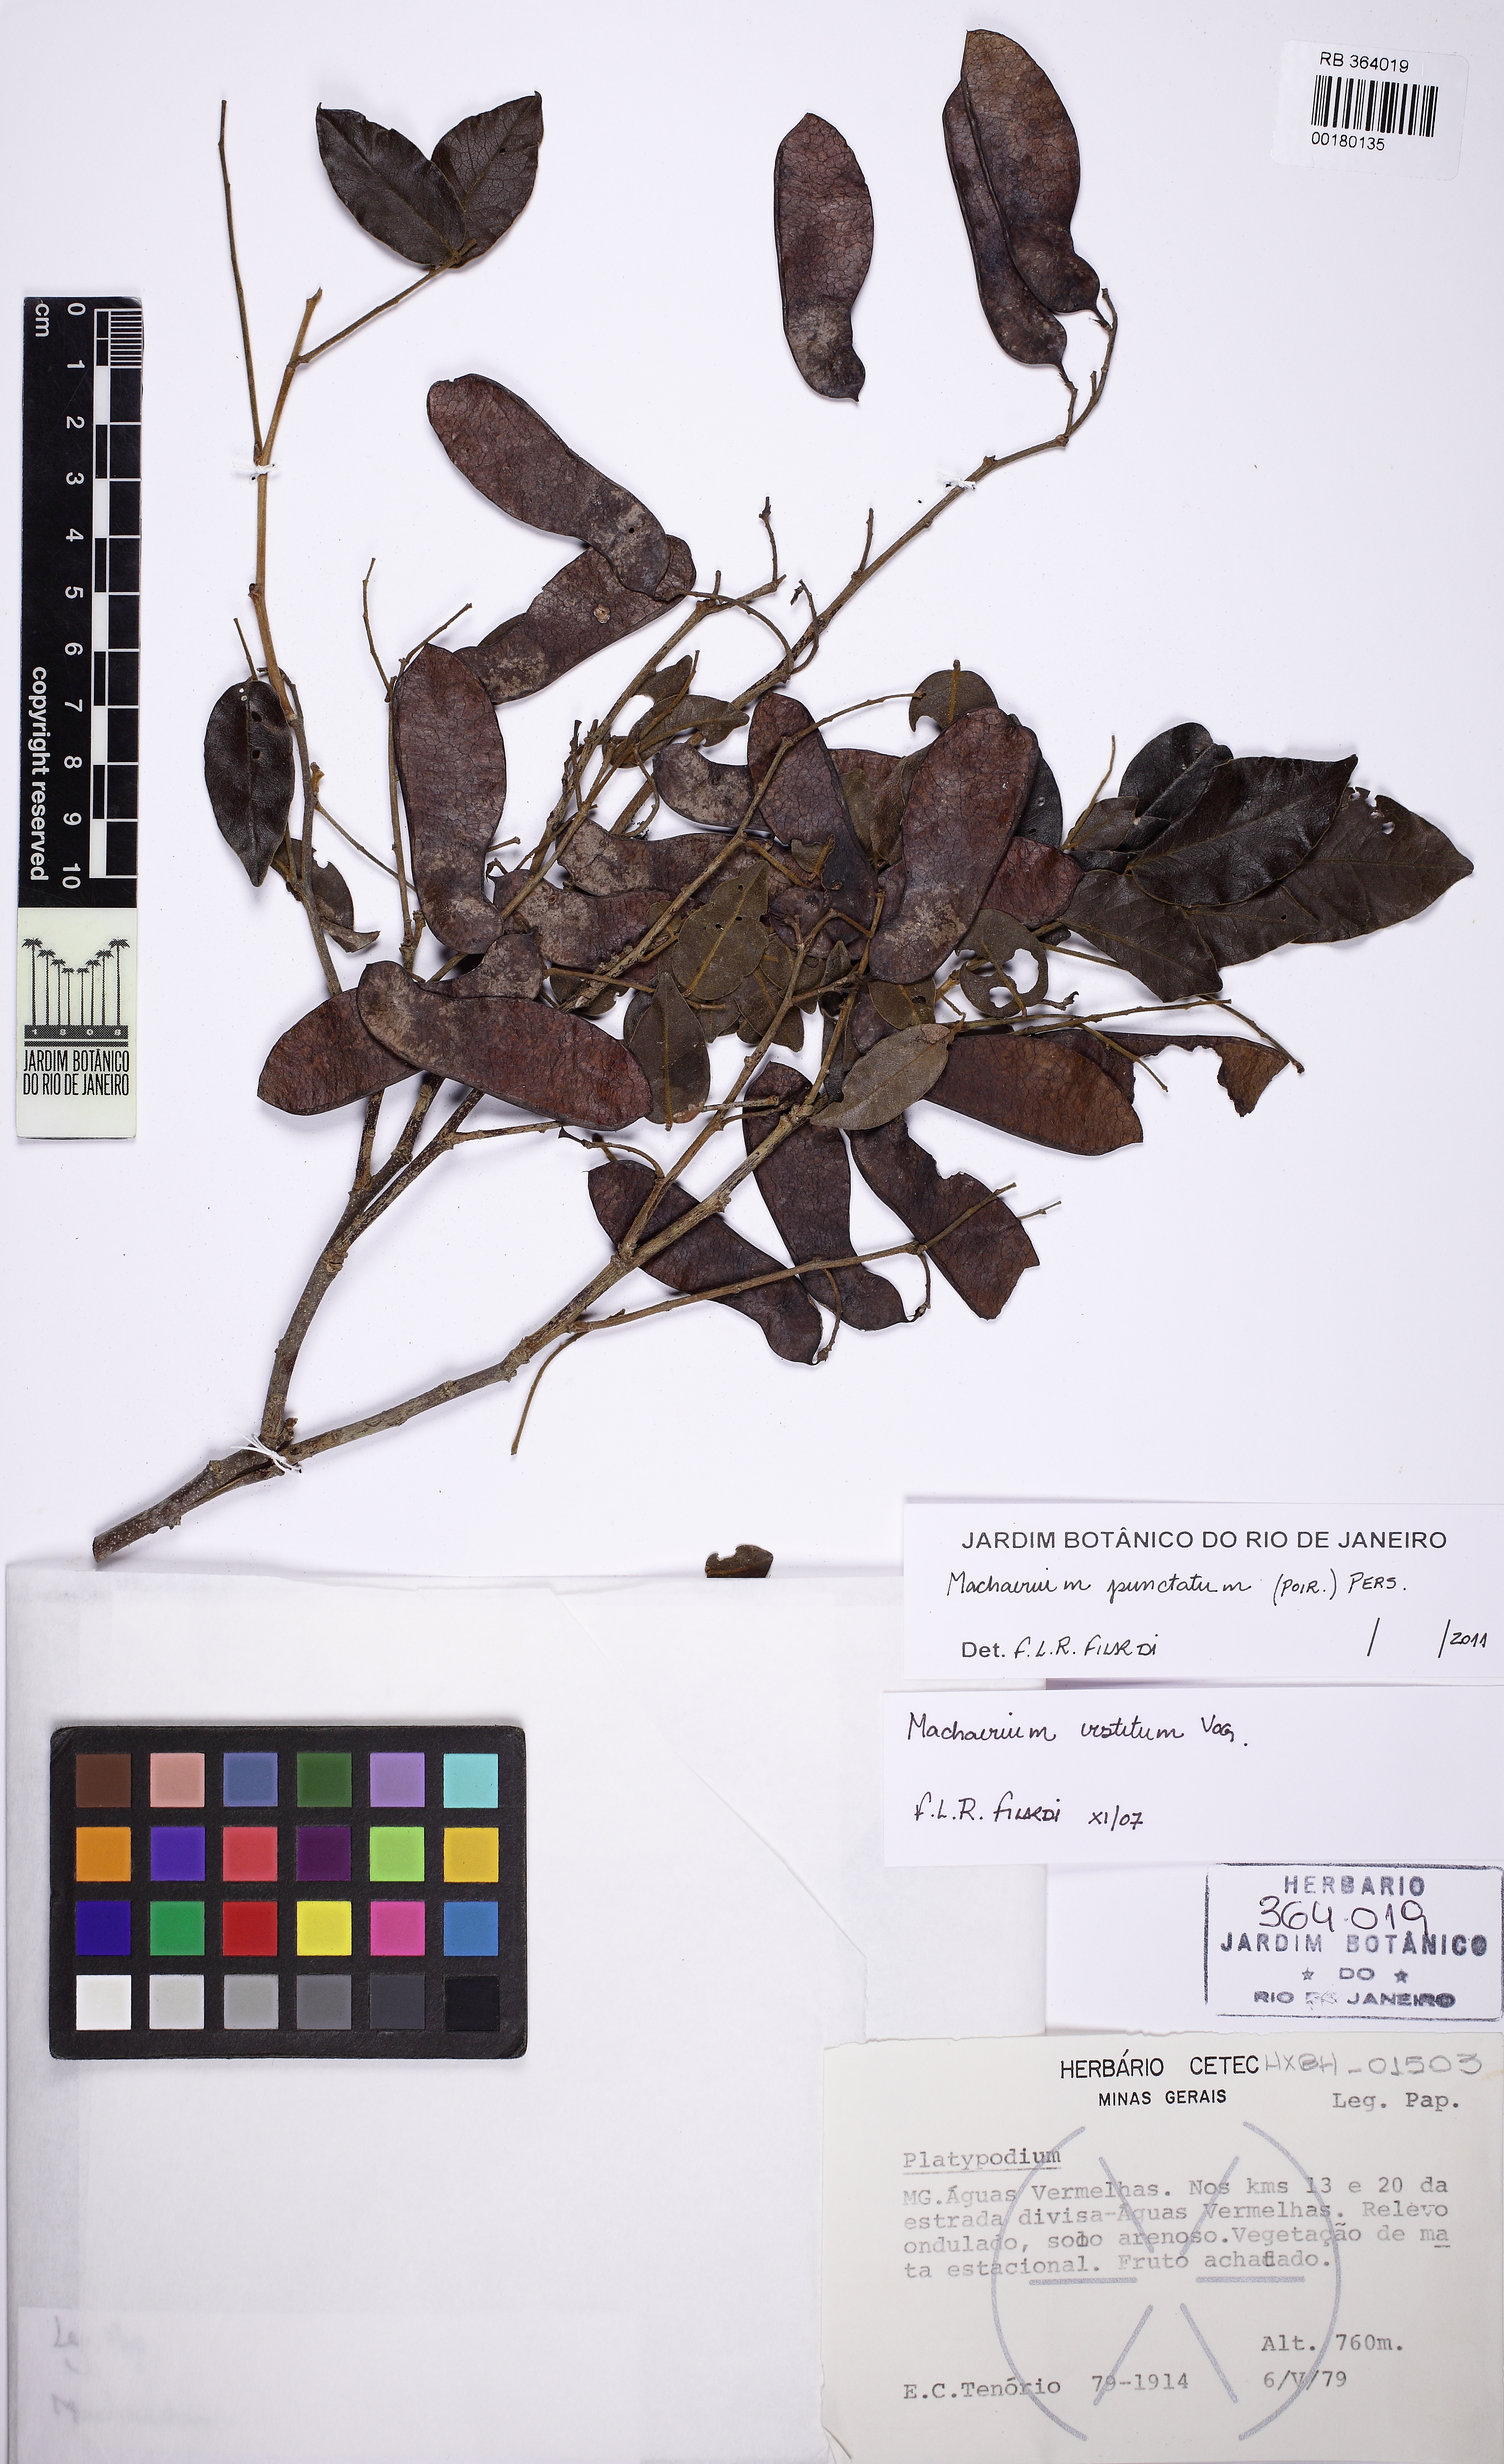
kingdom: Plantae
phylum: Tracheophyta
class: Magnoliopsida
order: Fabales
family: Fabaceae
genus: Machaerium
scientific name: Machaerium punctatum
